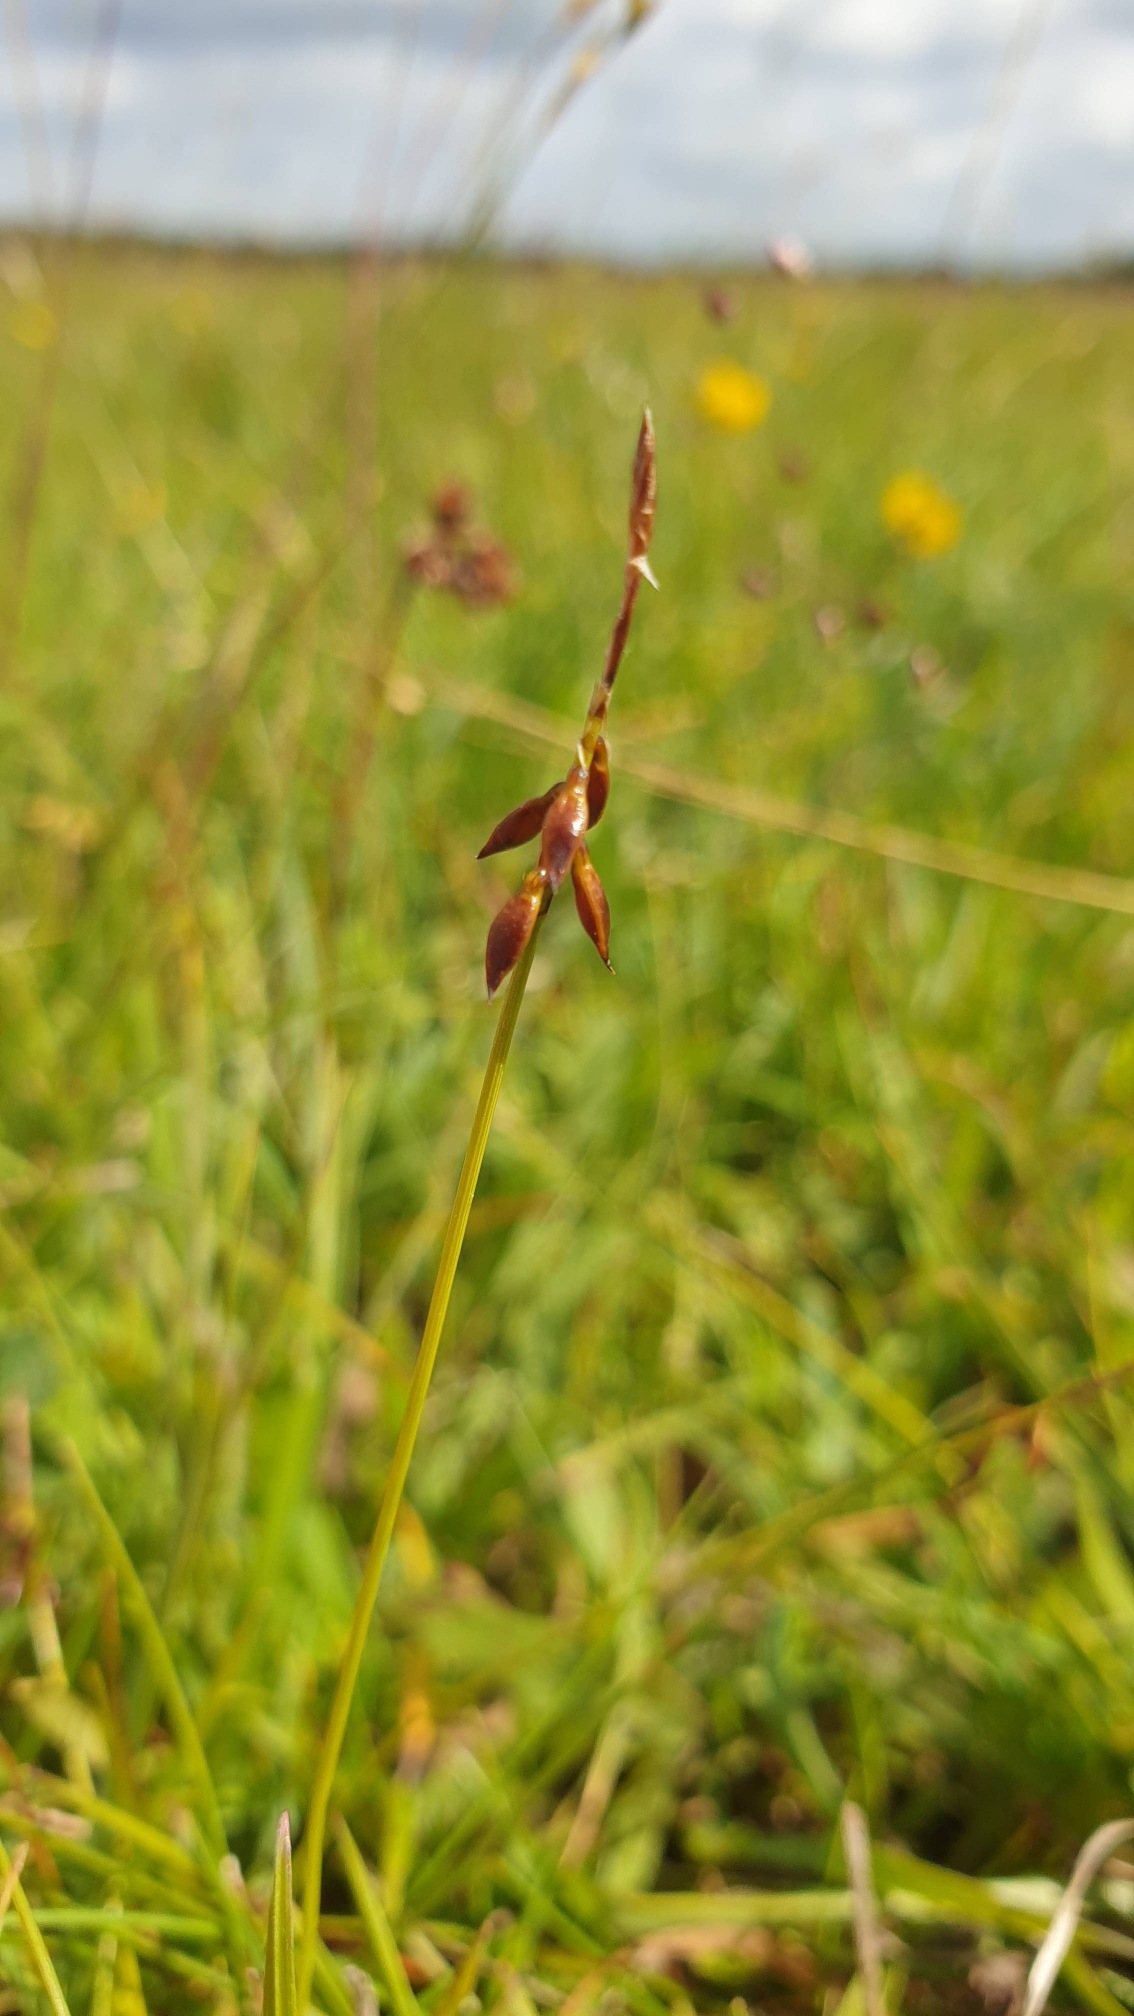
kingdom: Plantae
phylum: Tracheophyta
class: Liliopsida
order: Poales
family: Cyperaceae
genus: Carex
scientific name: Carex pulicaris
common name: Loppe-star
